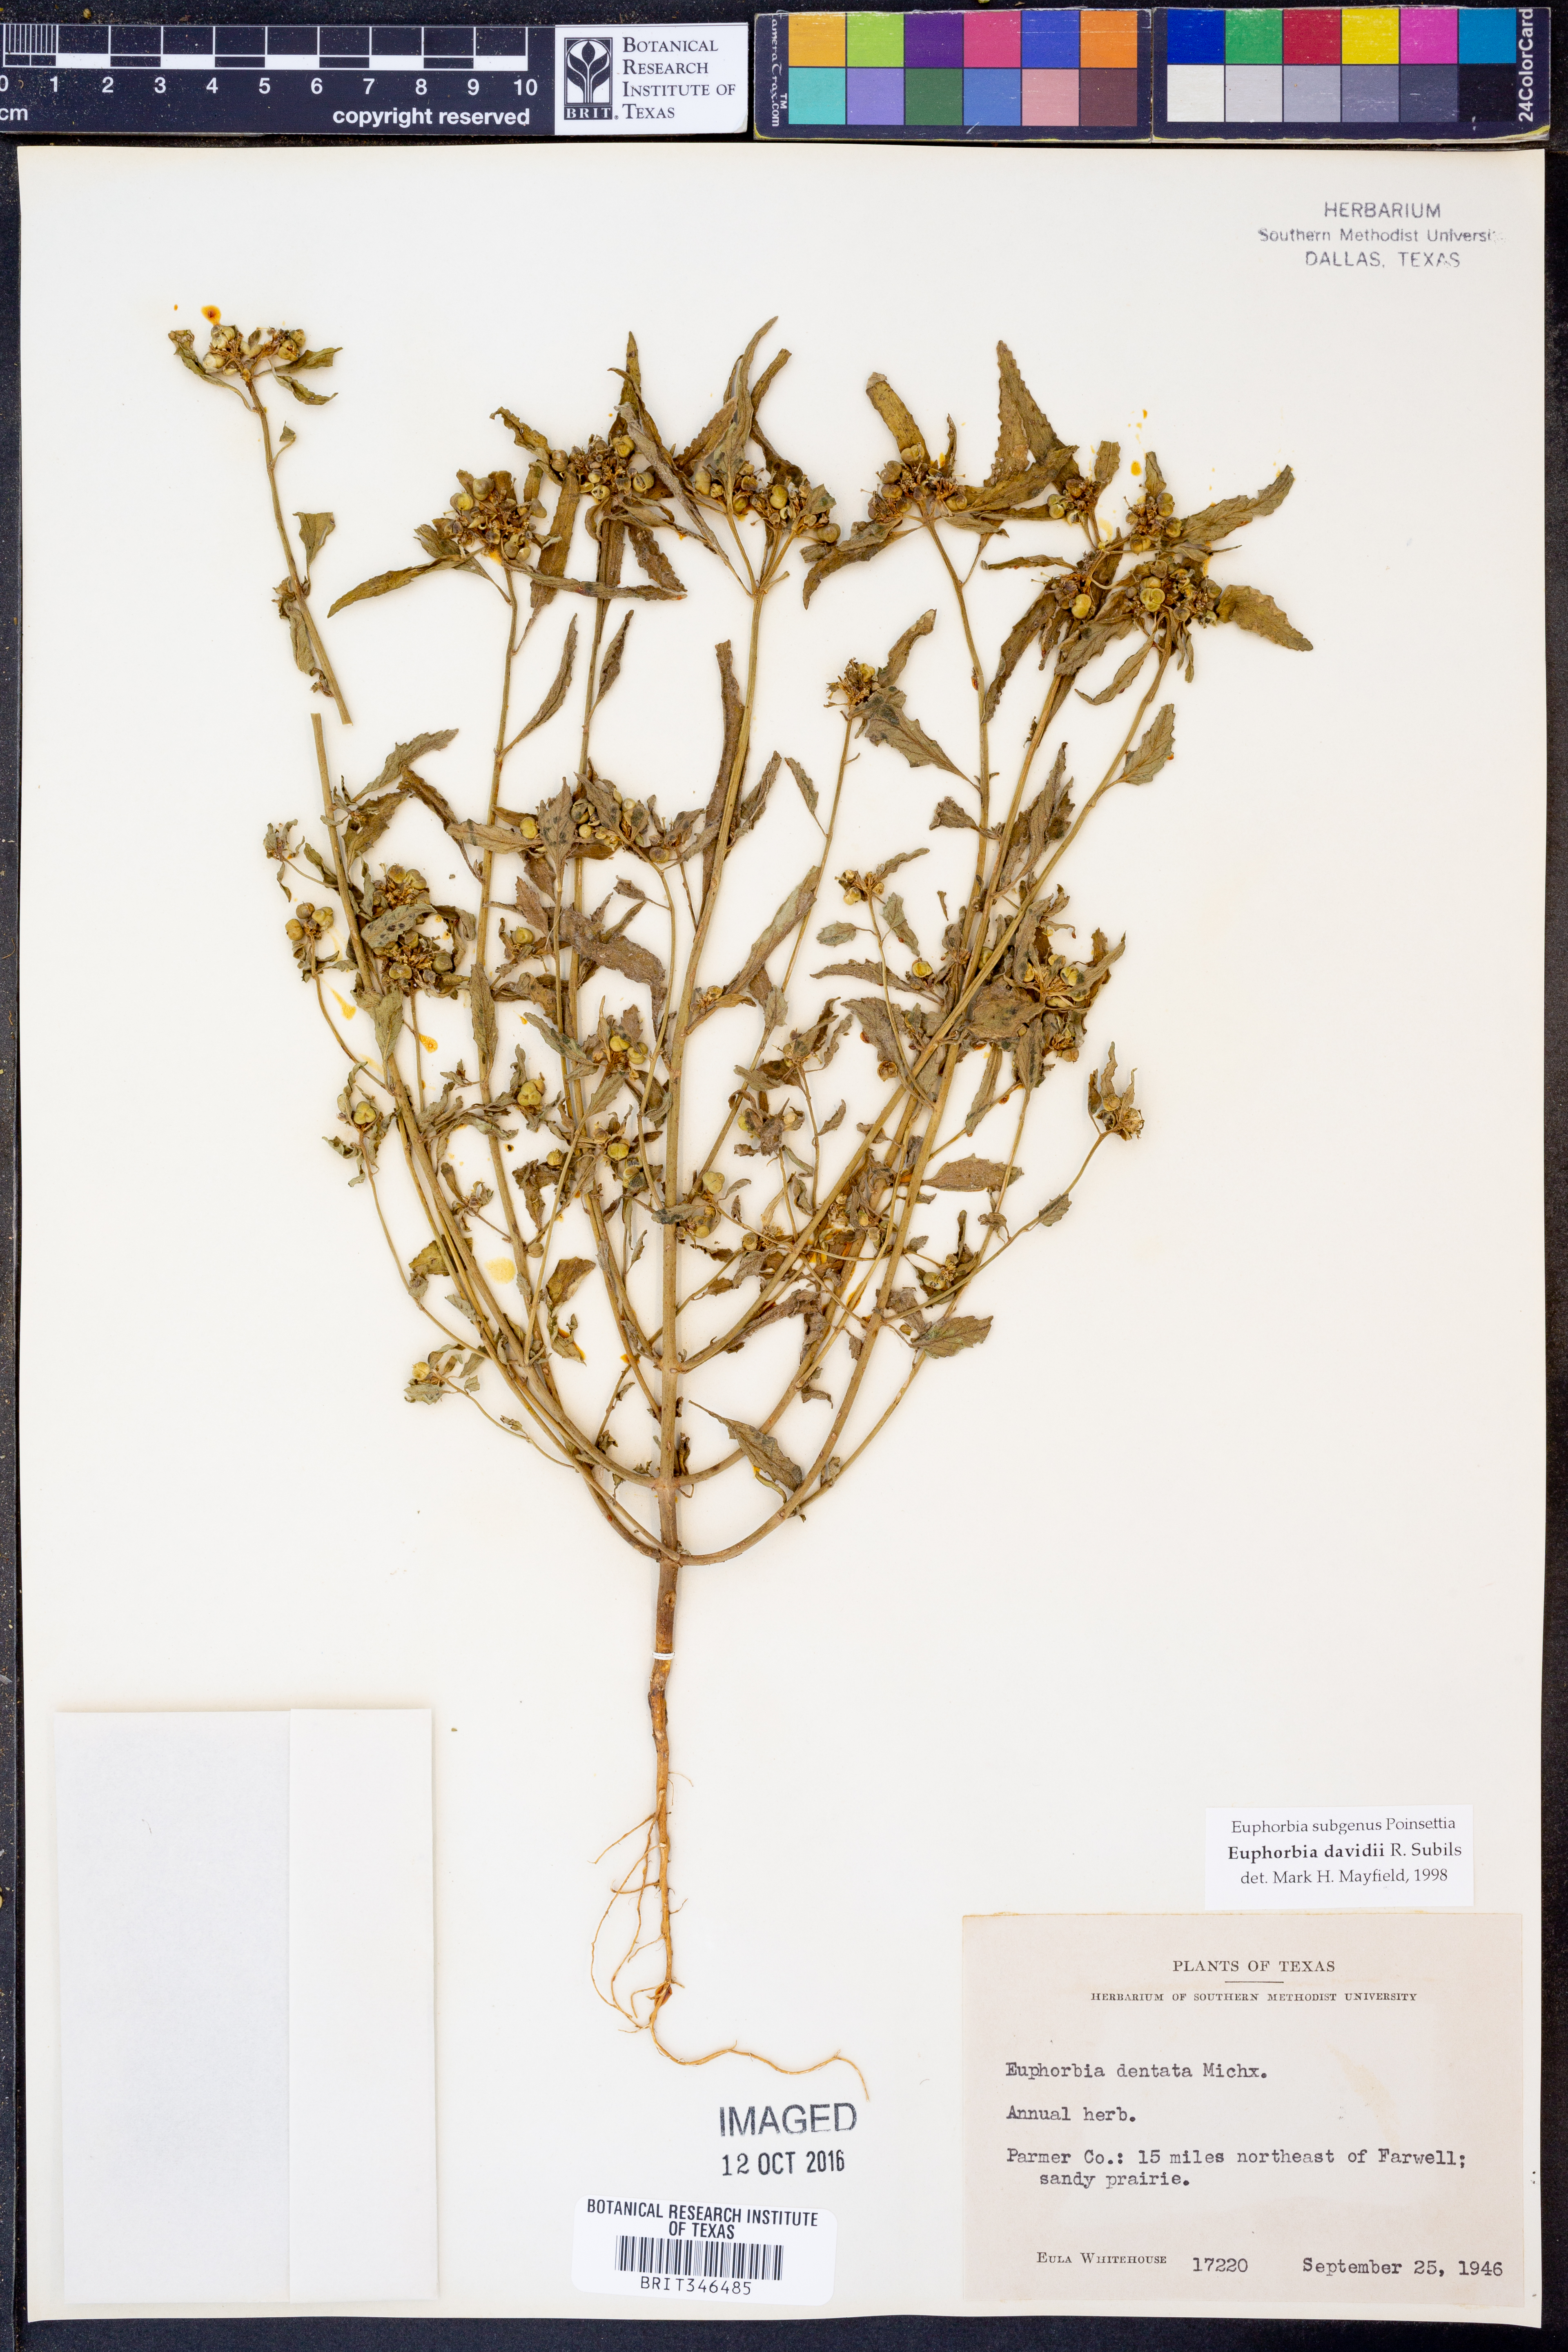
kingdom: Plantae
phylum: Tracheophyta
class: Magnoliopsida
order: Malpighiales
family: Euphorbiaceae
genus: Euphorbia
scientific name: Euphorbia davidii
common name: David's spurge
